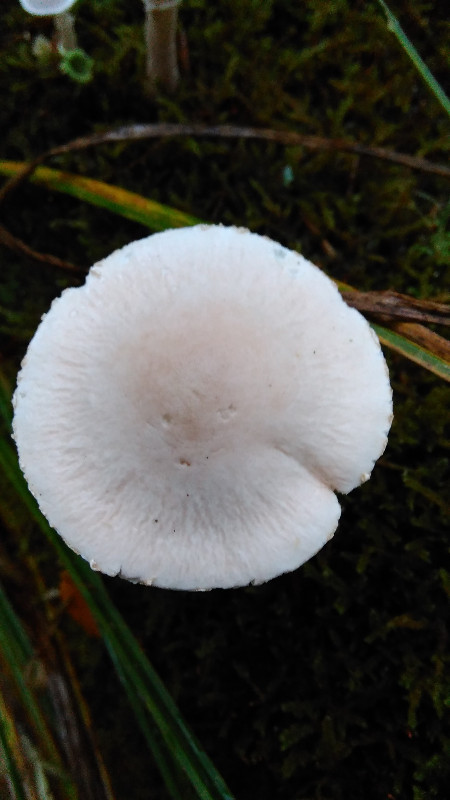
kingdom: Fungi
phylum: Basidiomycota
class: Agaricomycetes
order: Agaricales
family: Tricholomataceae
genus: Cystoderma
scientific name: Cystoderma carcharias
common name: rødgrå grynhat
